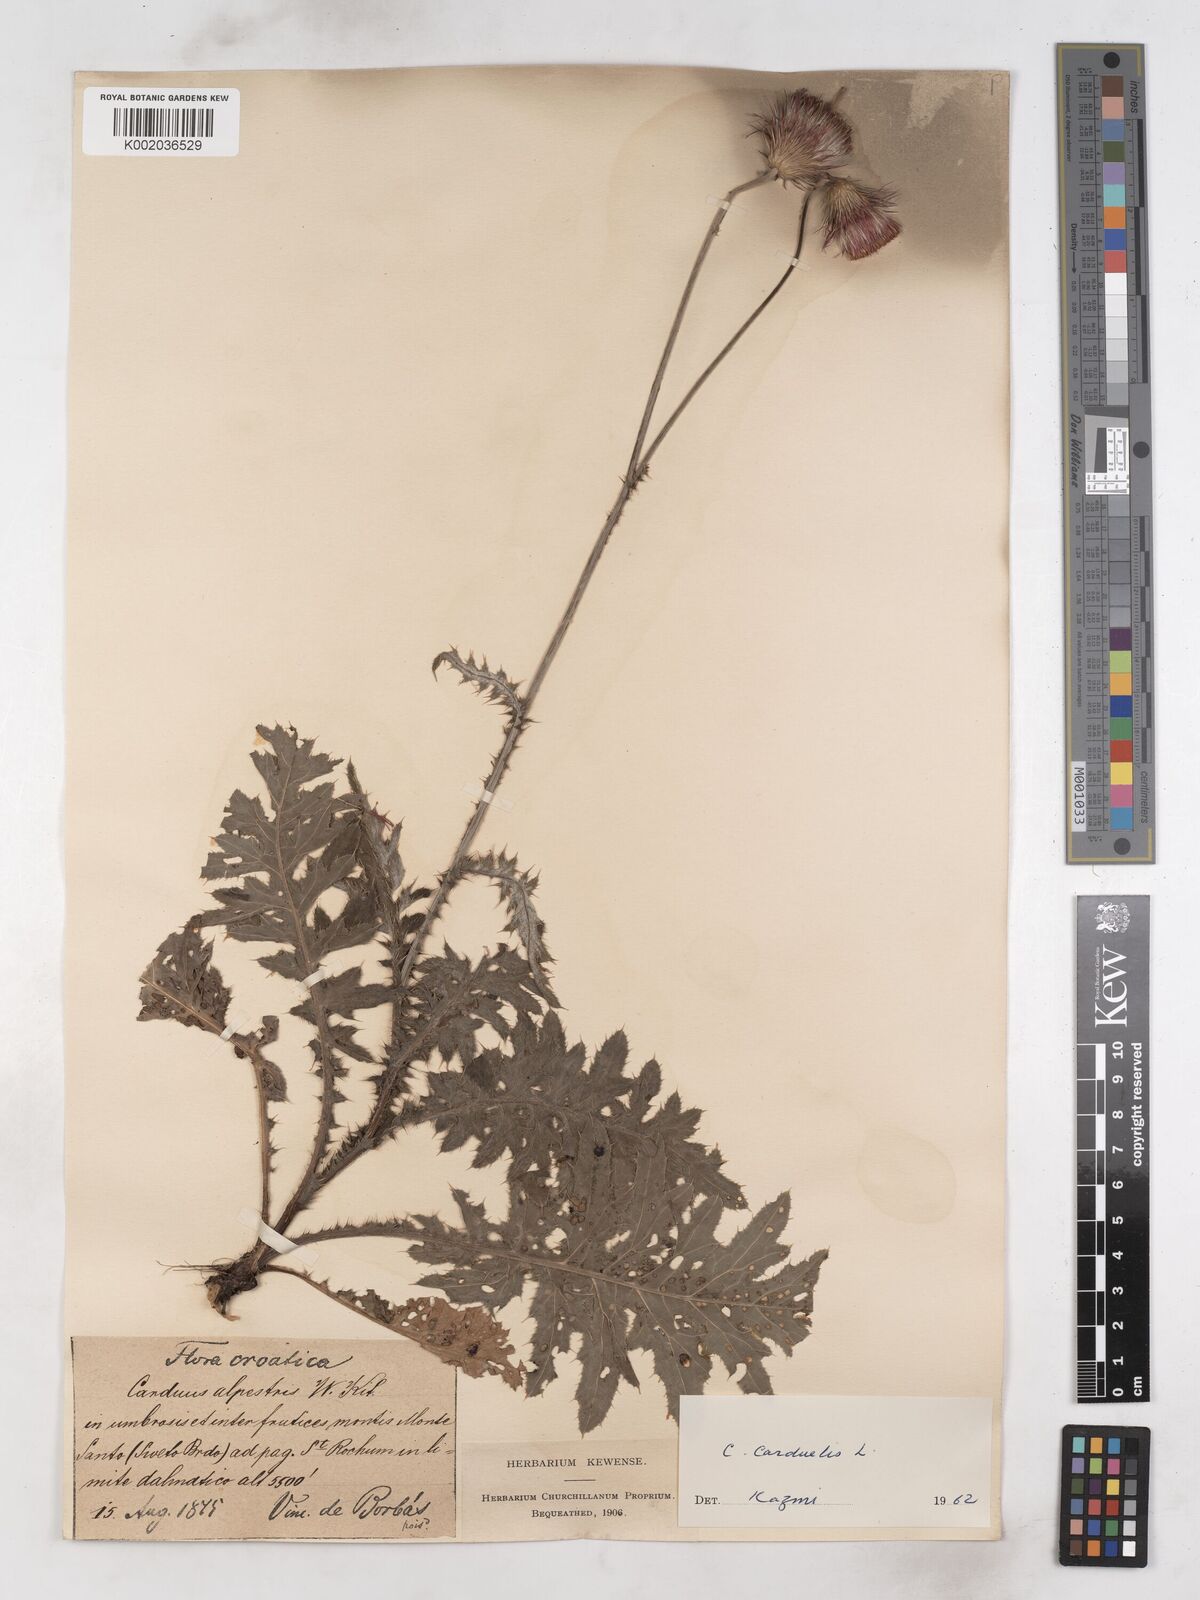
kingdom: Plantae
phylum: Tracheophyta
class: Magnoliopsida
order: Asterales
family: Asteraceae
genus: Carduus
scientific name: Carduus carduelis
